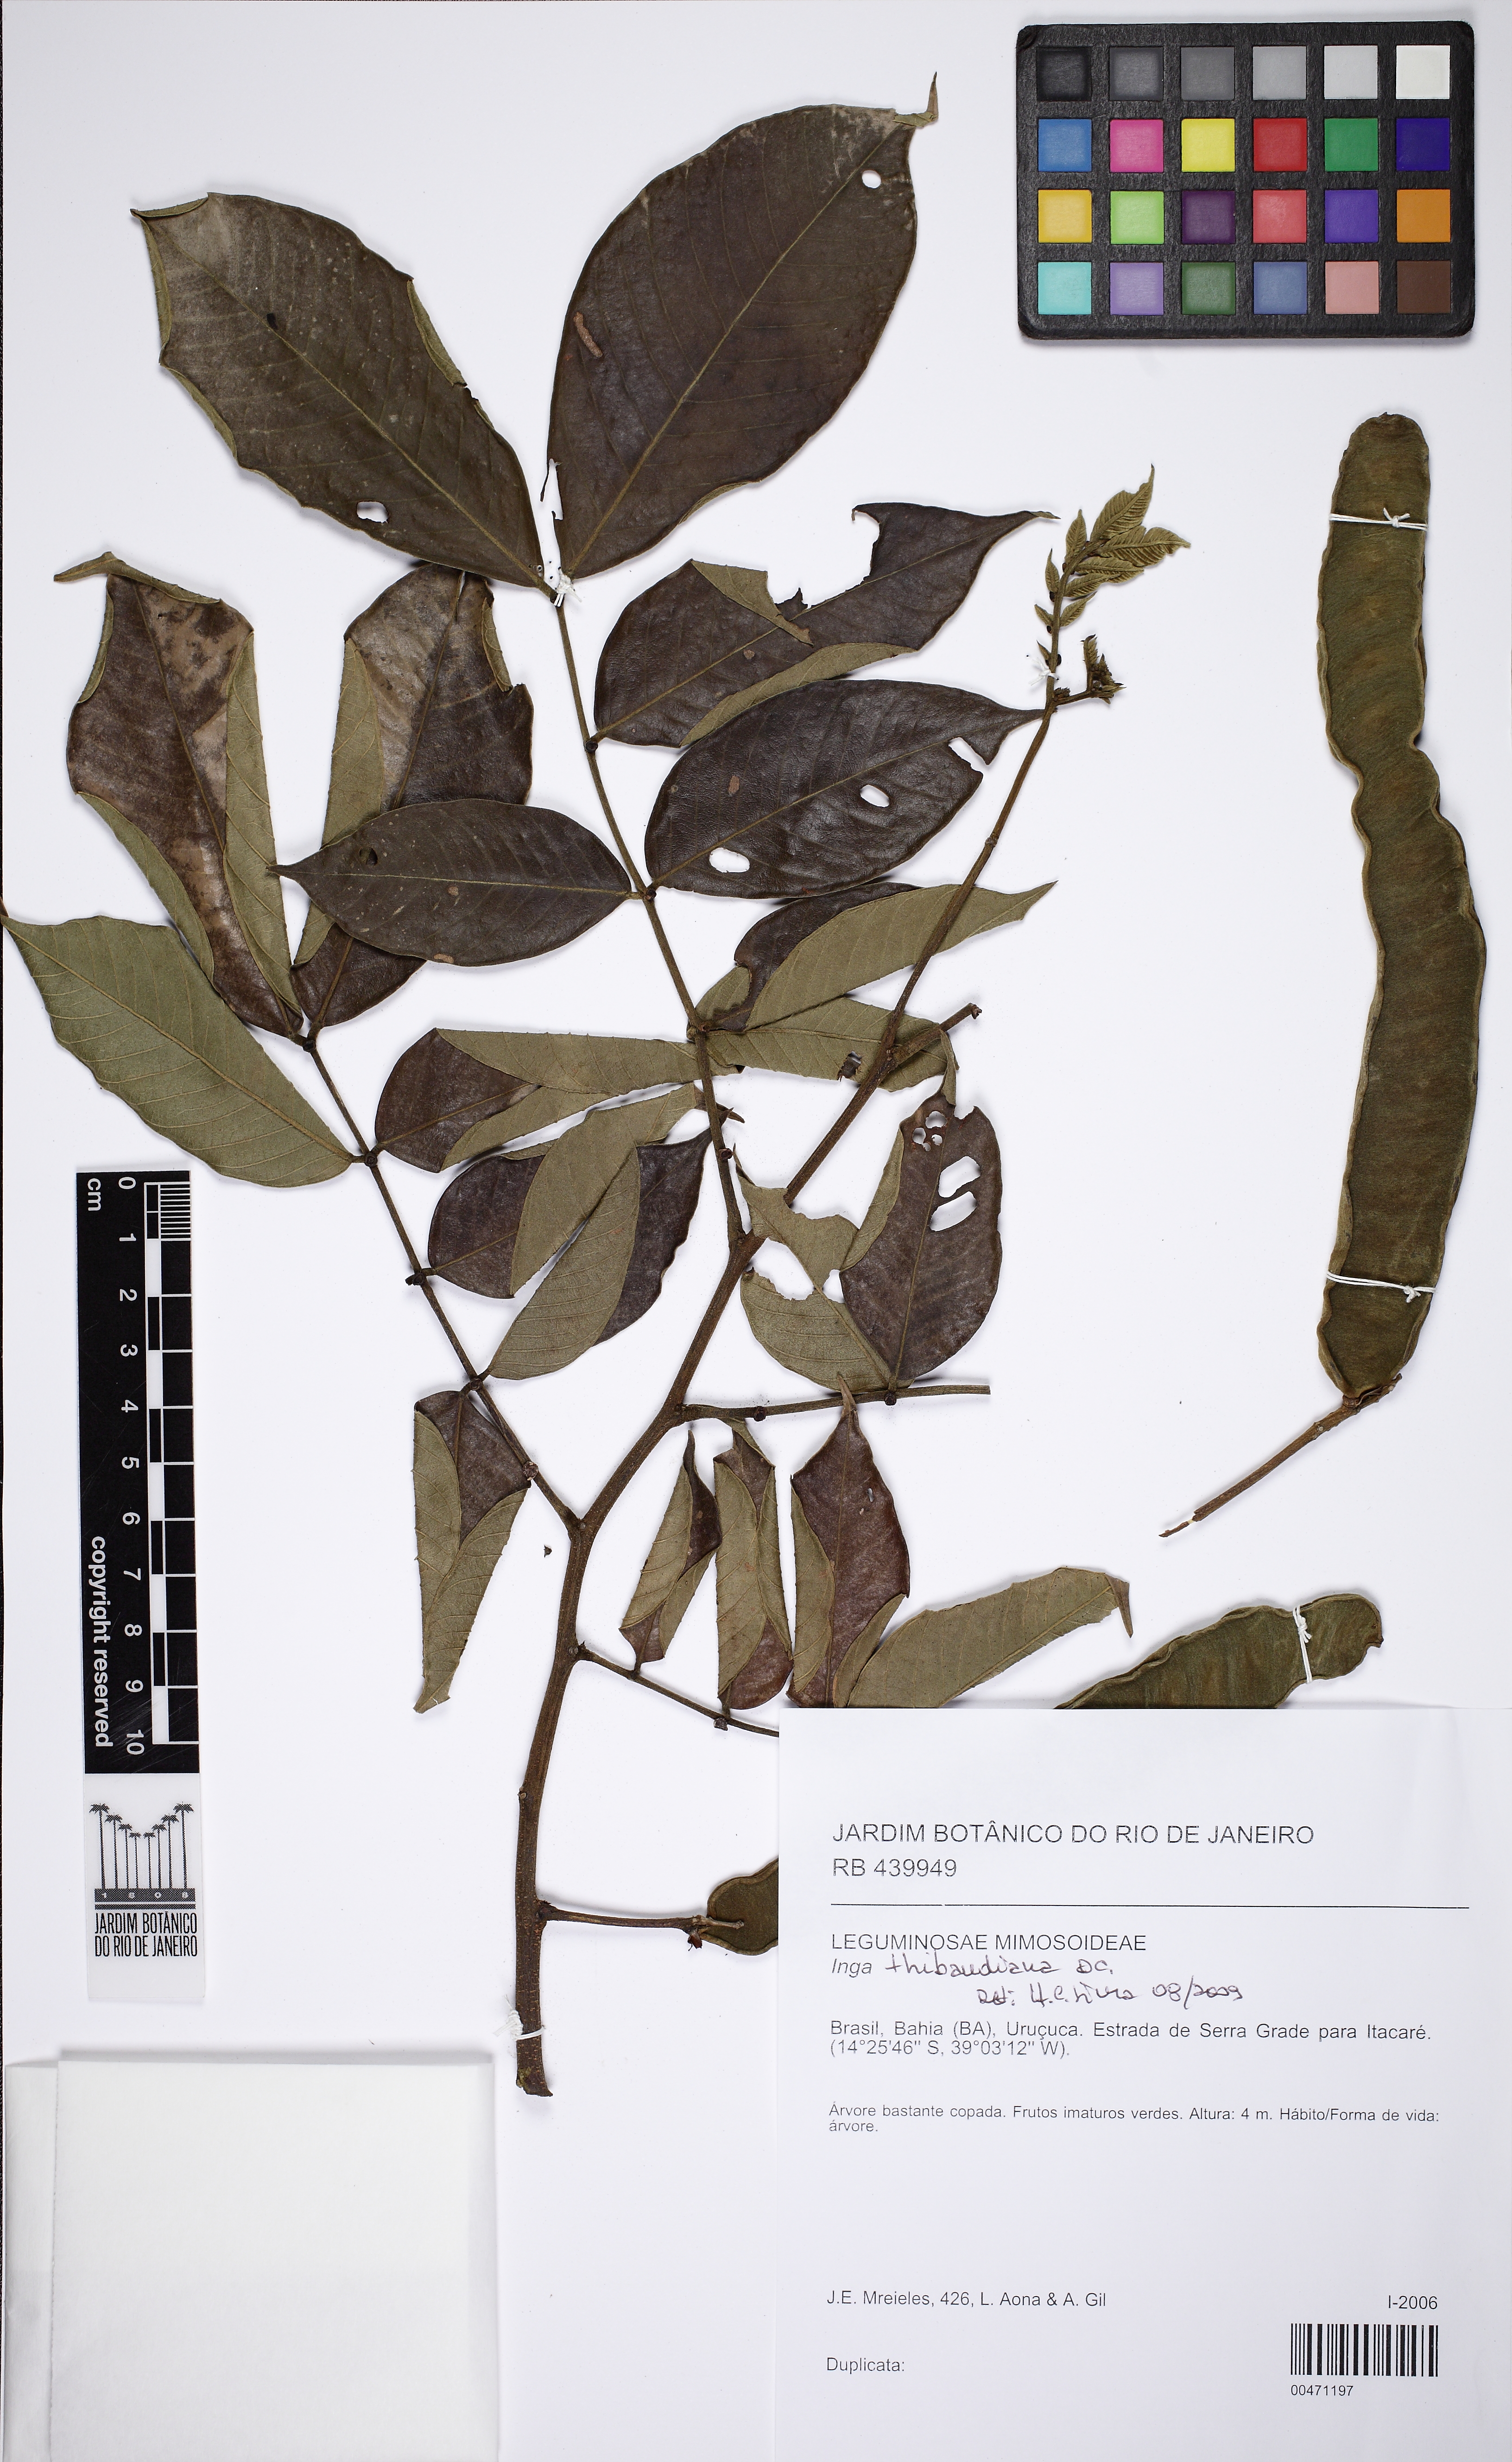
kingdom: Plantae
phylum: Tracheophyta
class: Magnoliopsida
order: Fabales
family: Fabaceae
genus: Inga
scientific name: Inga thibaudiana
